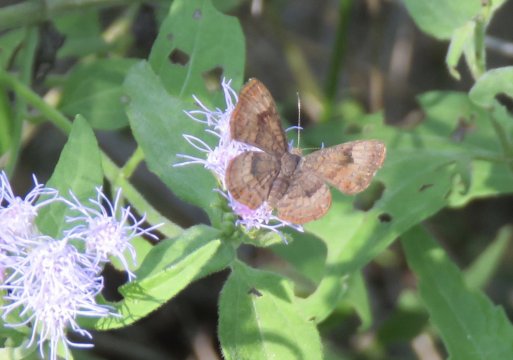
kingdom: Animalia
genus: Calephelis
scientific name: Calephelis nemesis
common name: Fatal Metalmark
